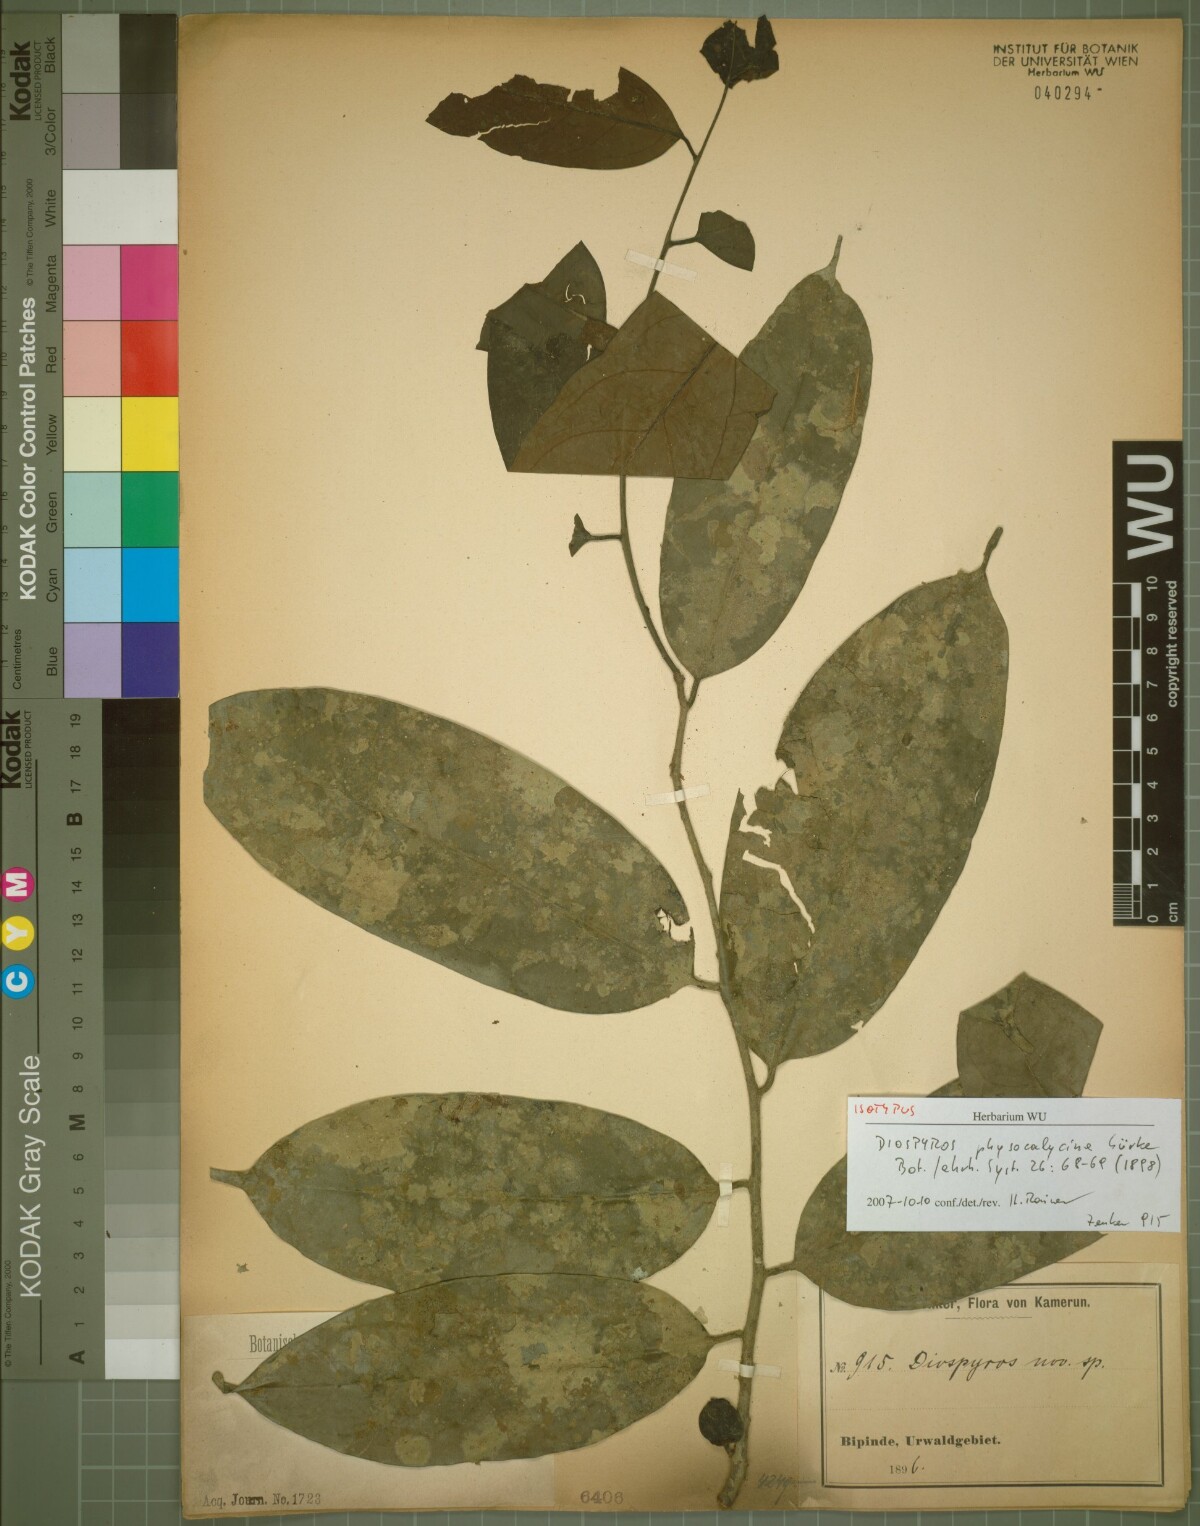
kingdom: Plantae
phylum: Tracheophyta
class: Magnoliopsida
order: Ericales
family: Ebenaceae
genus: Diospyros
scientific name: Diospyros physocalycina
